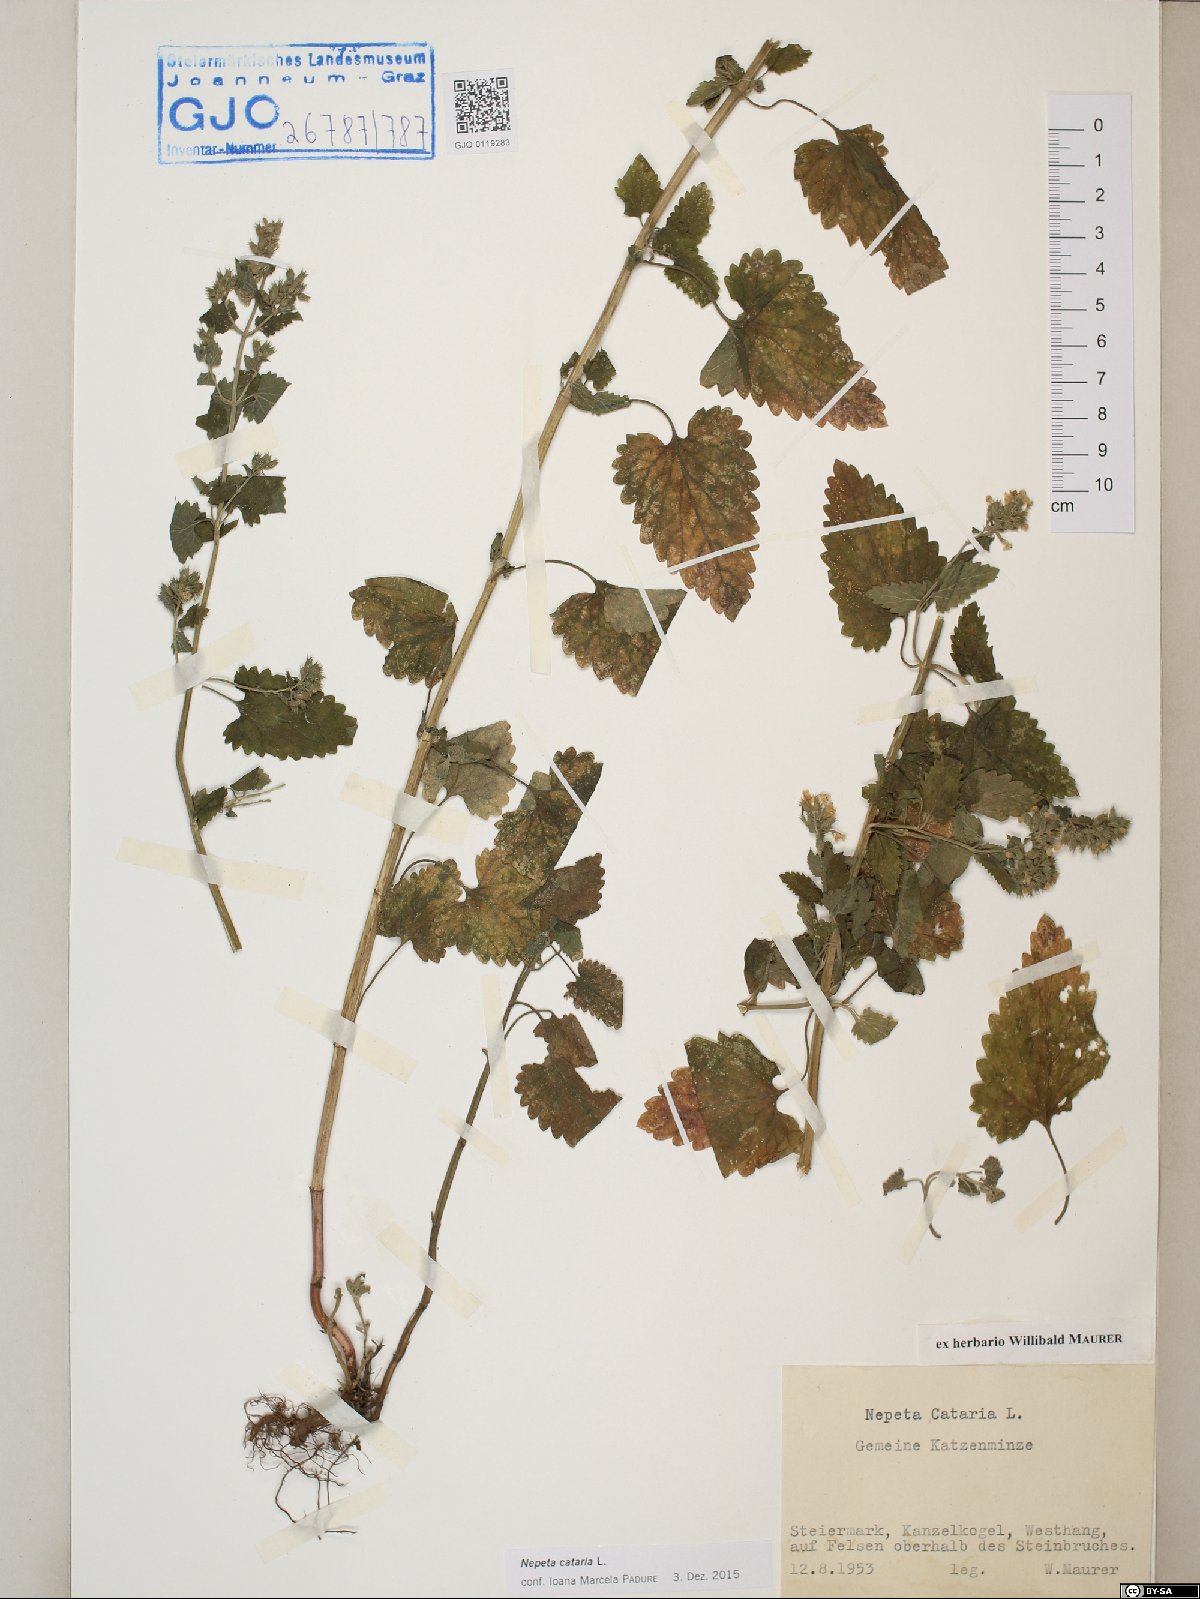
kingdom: Plantae
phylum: Tracheophyta
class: Magnoliopsida
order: Lamiales
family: Lamiaceae
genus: Nepeta
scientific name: Nepeta cataria
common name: Catnip
